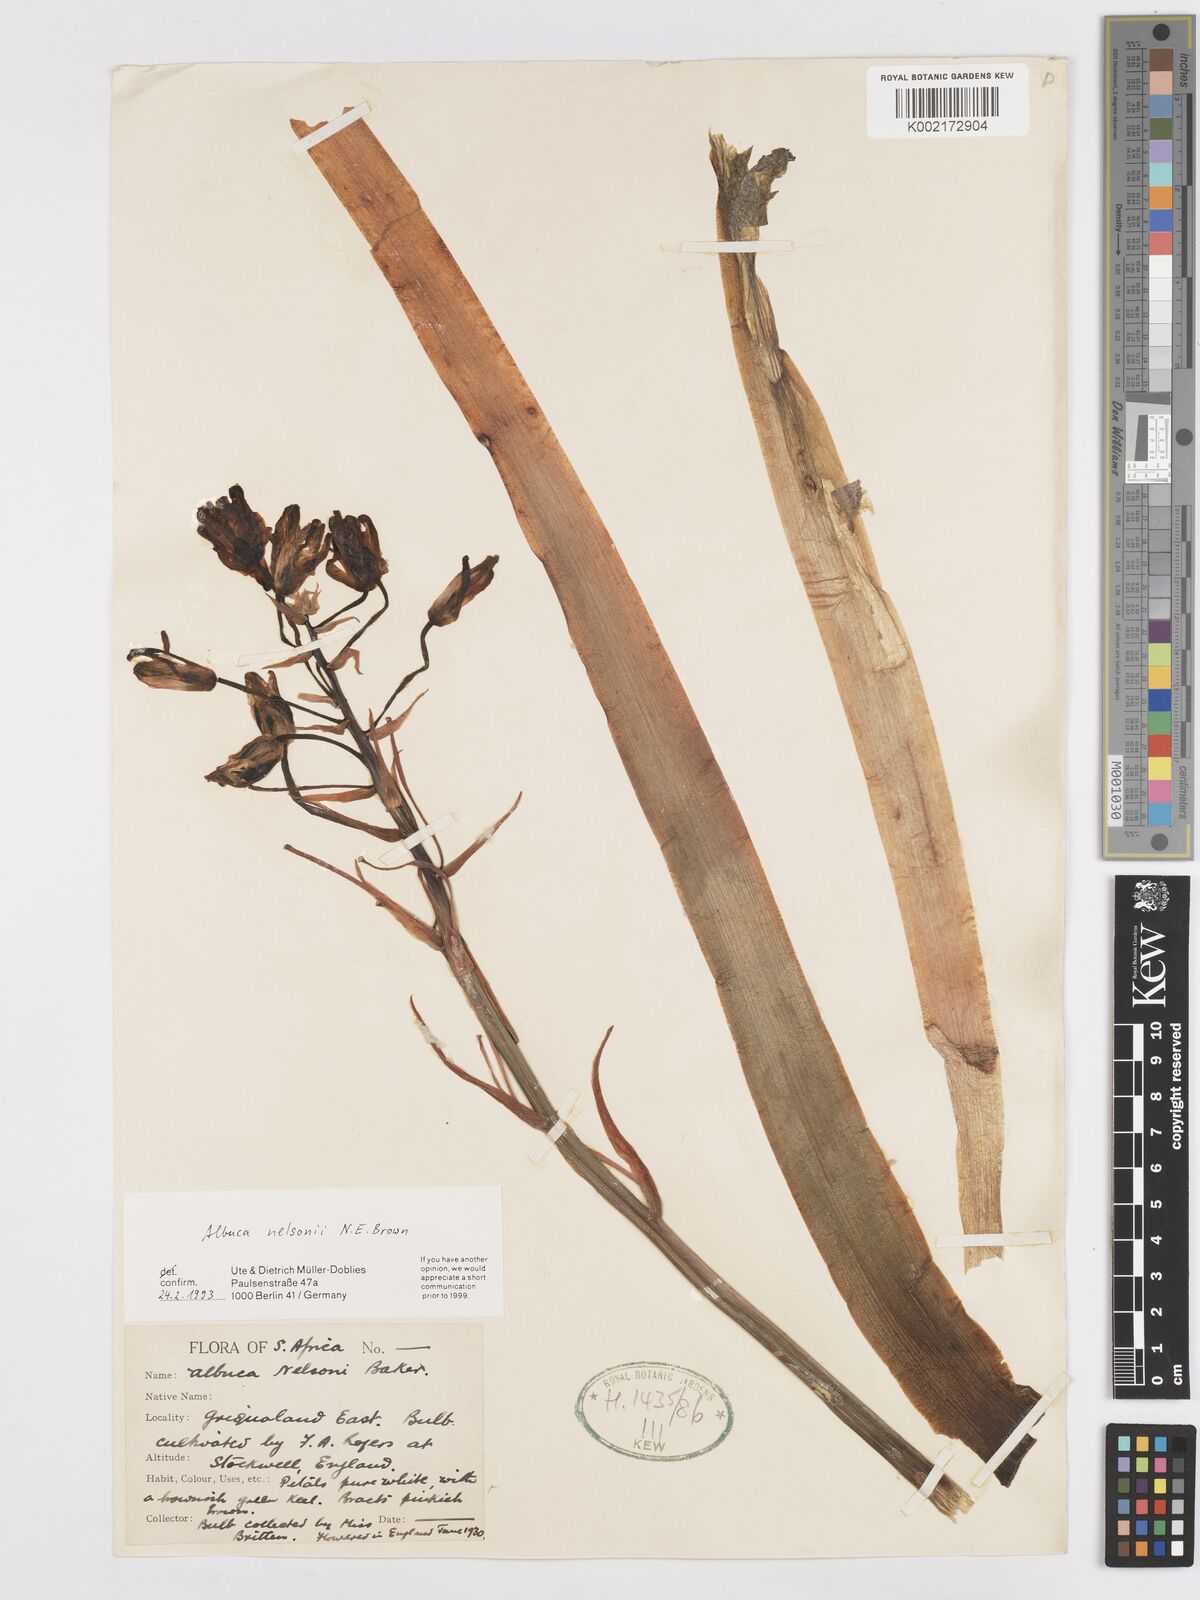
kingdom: Plantae
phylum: Tracheophyta
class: Liliopsida
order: Asparagales
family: Asparagaceae
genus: Albuca
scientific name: Albuca nelsonii
